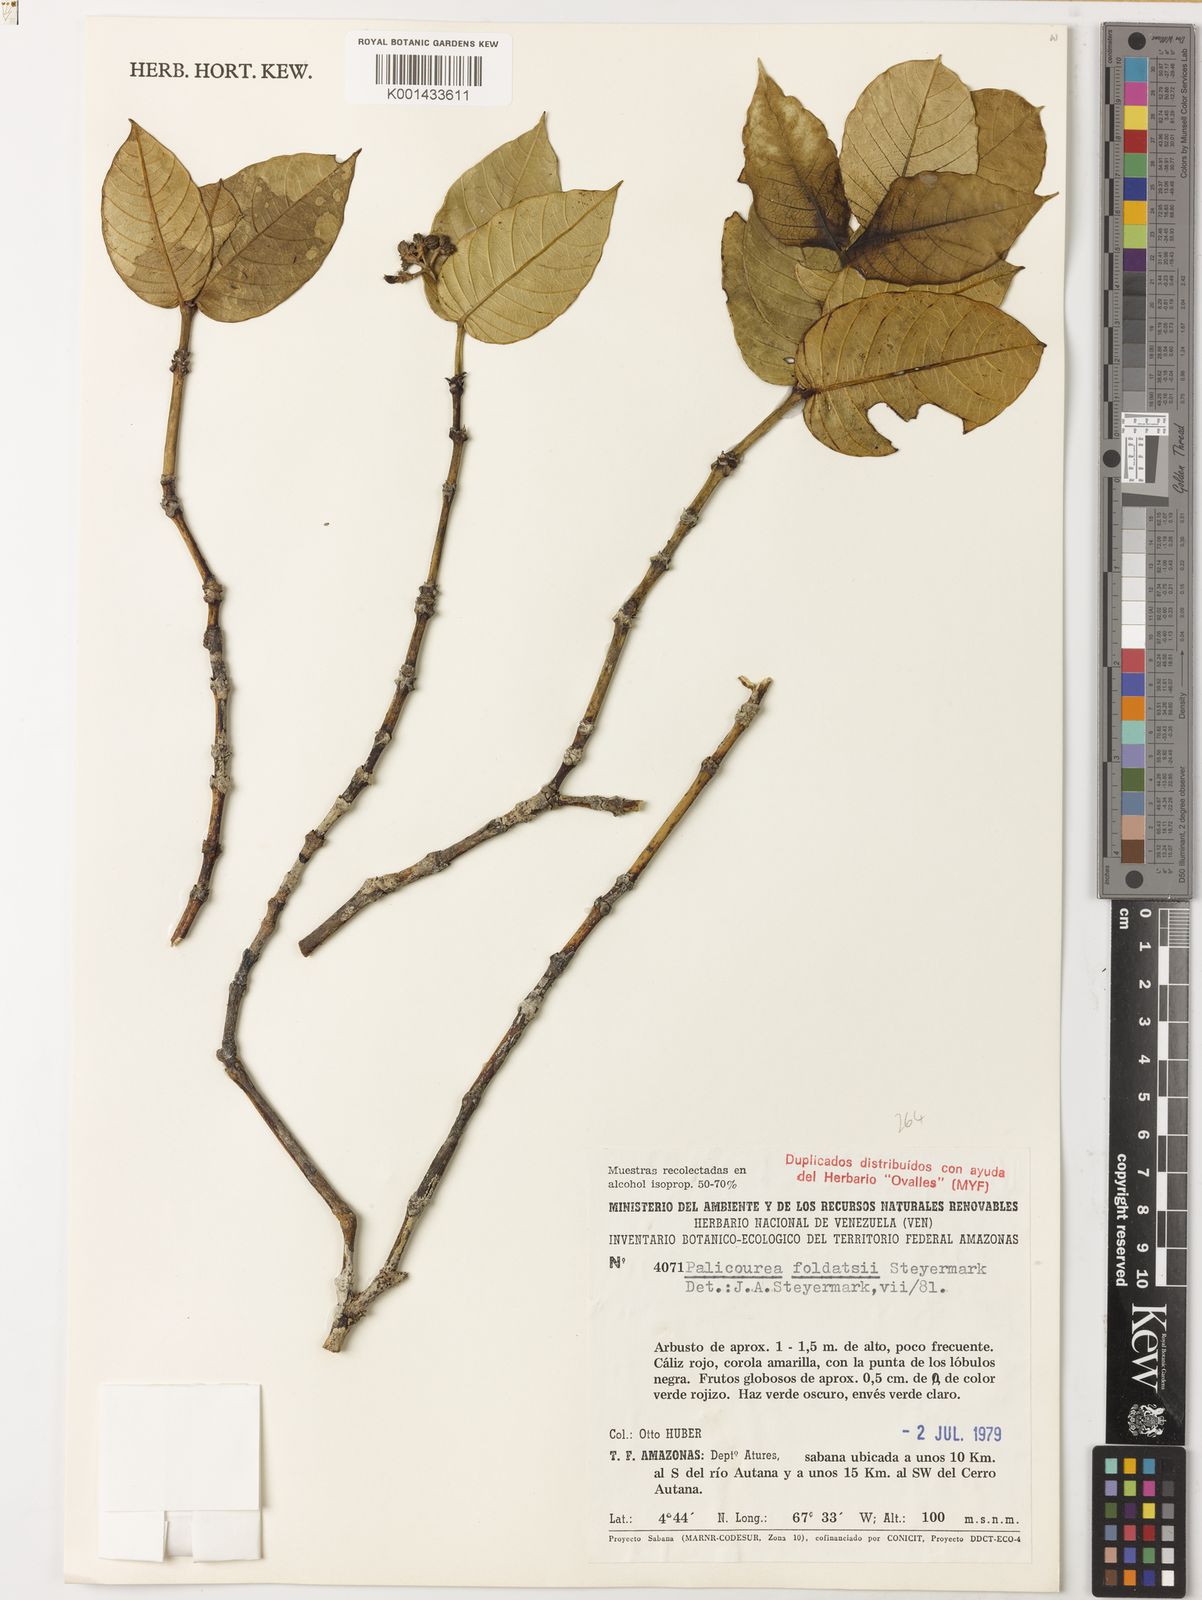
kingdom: Plantae
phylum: Tracheophyta
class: Magnoliopsida
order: Gentianales
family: Rubiaceae
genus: Palicourea
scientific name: Palicourea foldatsii
